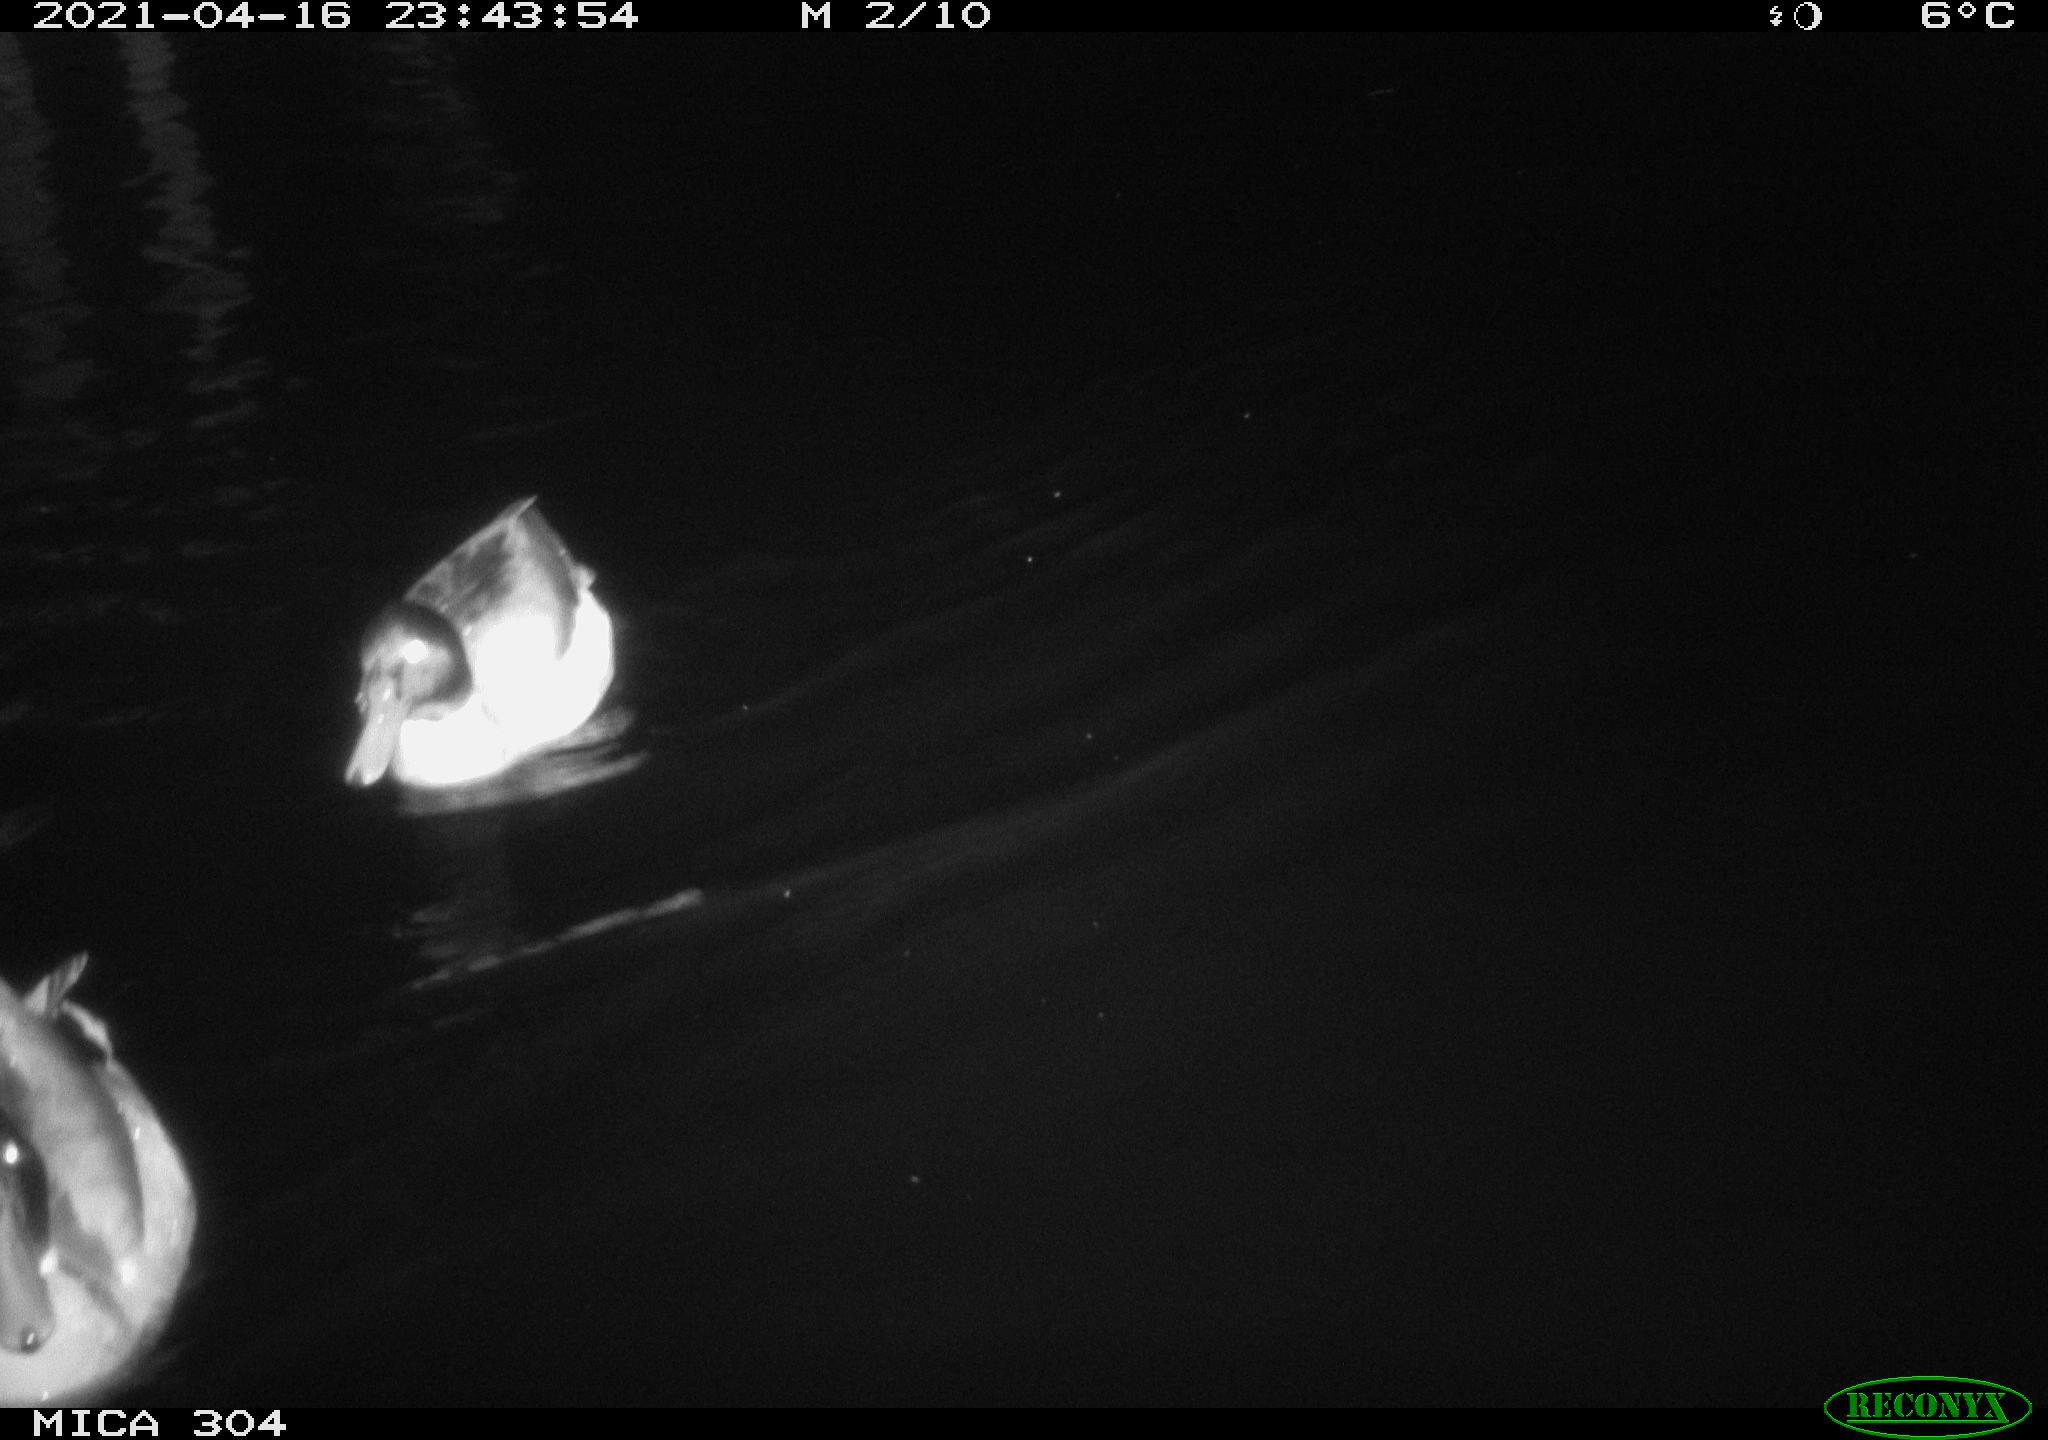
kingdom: Animalia
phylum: Chordata
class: Aves
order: Anseriformes
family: Anatidae
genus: Anas
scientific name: Anas
